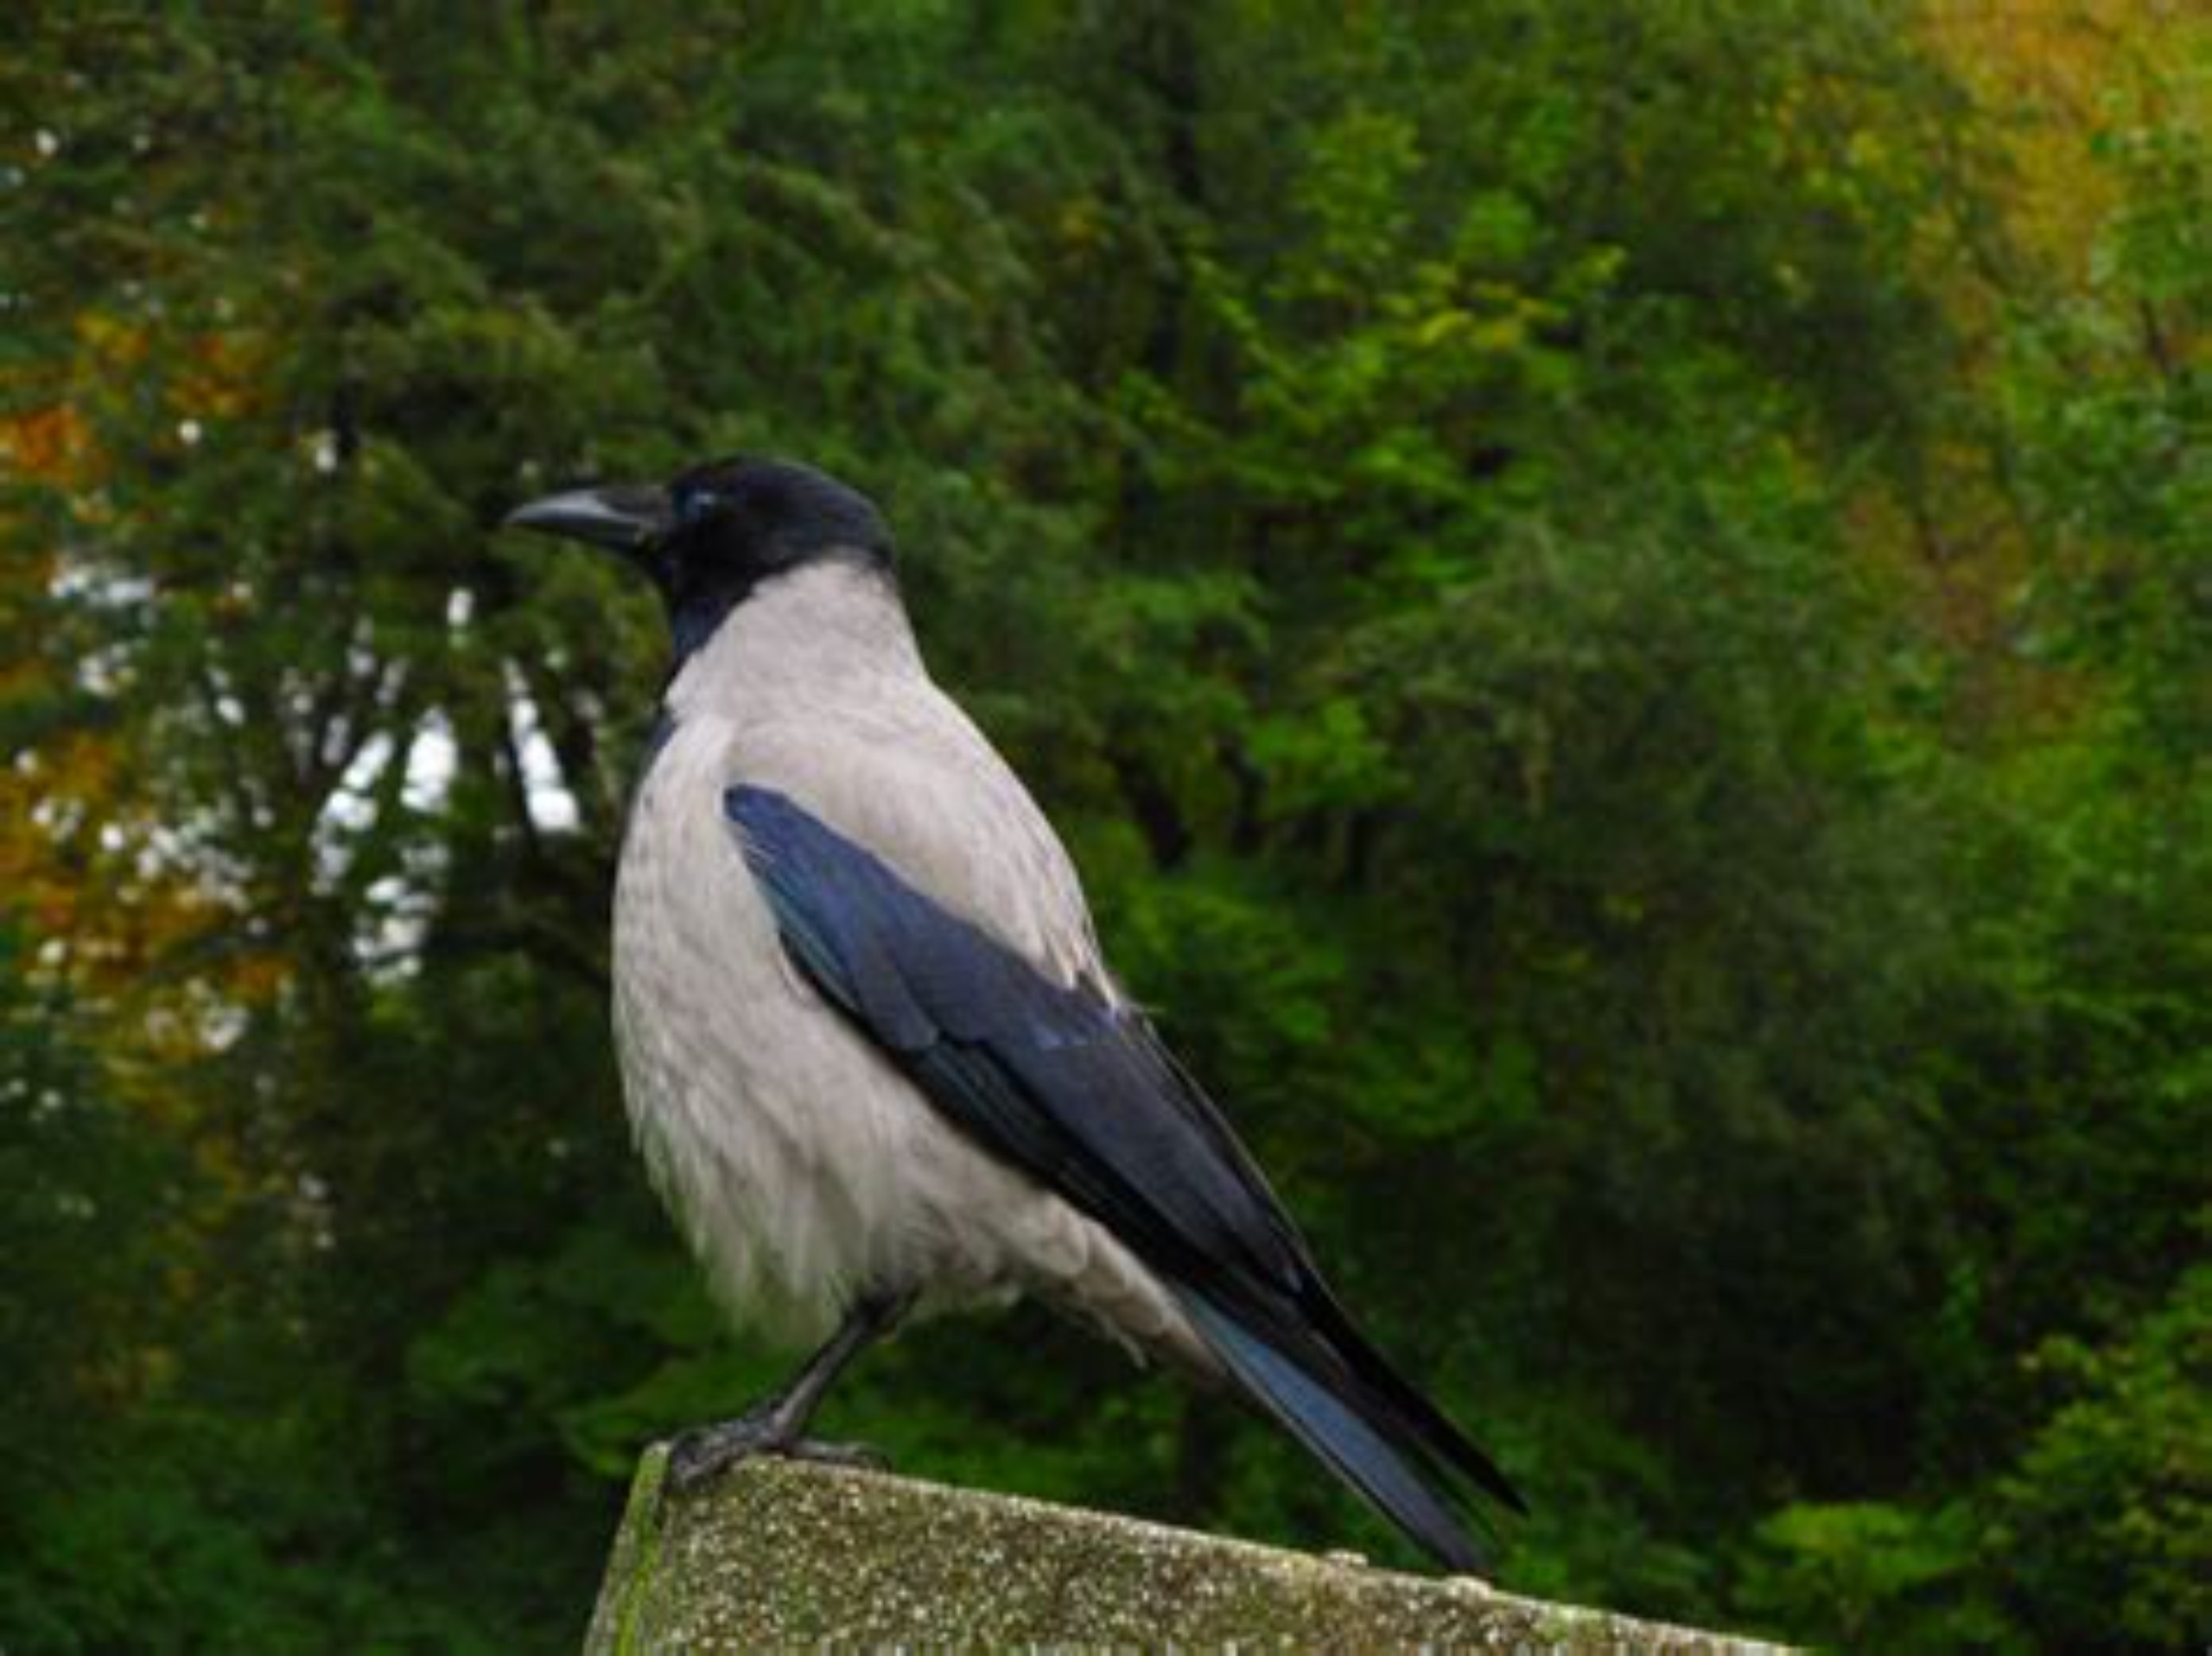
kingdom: Animalia
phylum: Chordata
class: Aves
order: Passeriformes
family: Corvidae
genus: Corvus
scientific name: Corvus cornix
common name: Gråkrage
